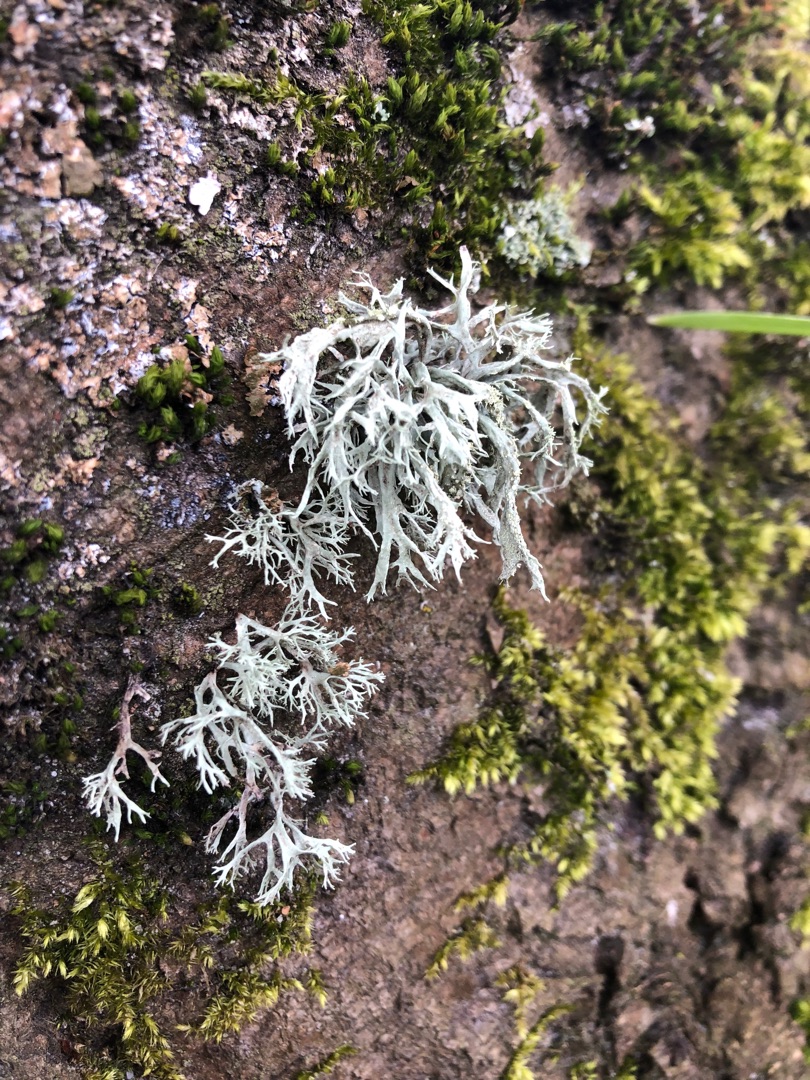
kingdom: Fungi
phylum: Ascomycota
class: Lecanoromycetes
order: Lecanorales
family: Ramalinaceae
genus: Ramalina
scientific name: Ramalina farinacea
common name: Melet grenlav
